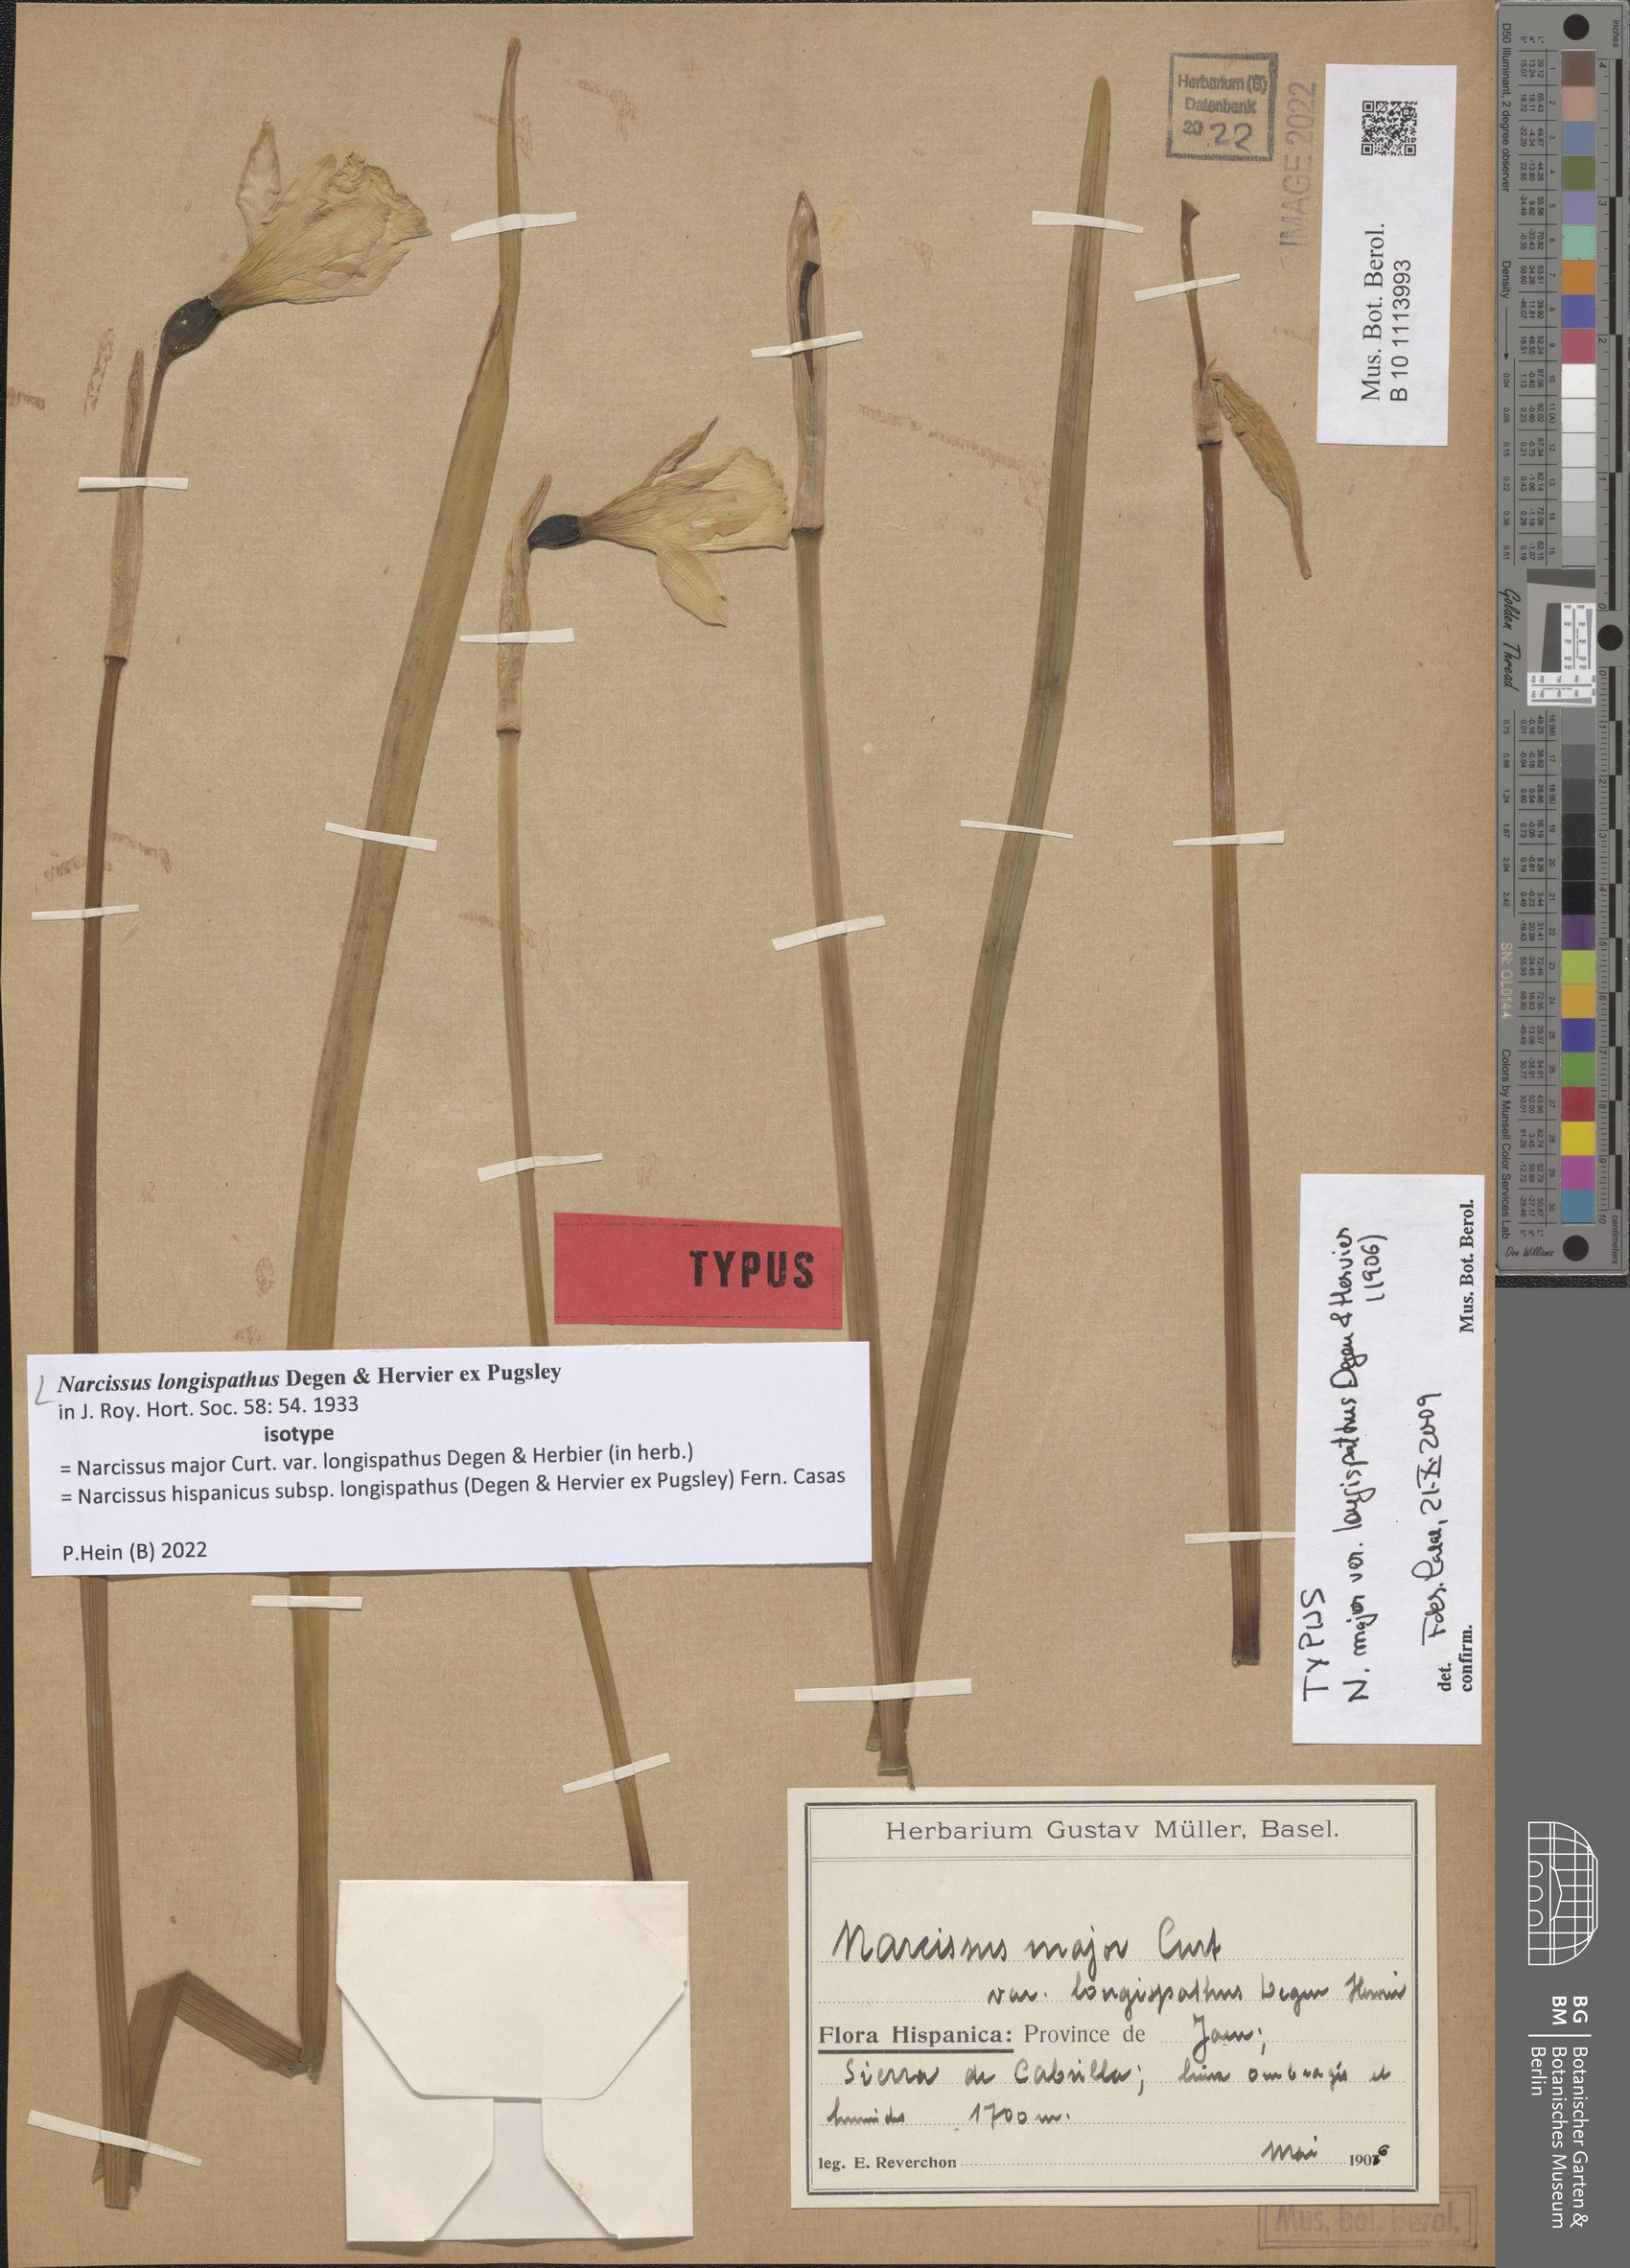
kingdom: Plantae
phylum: Tracheophyta
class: Liliopsida
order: Asparagales
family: Amaryllidaceae
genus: Narcissus
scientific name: Narcissus nevadensis
